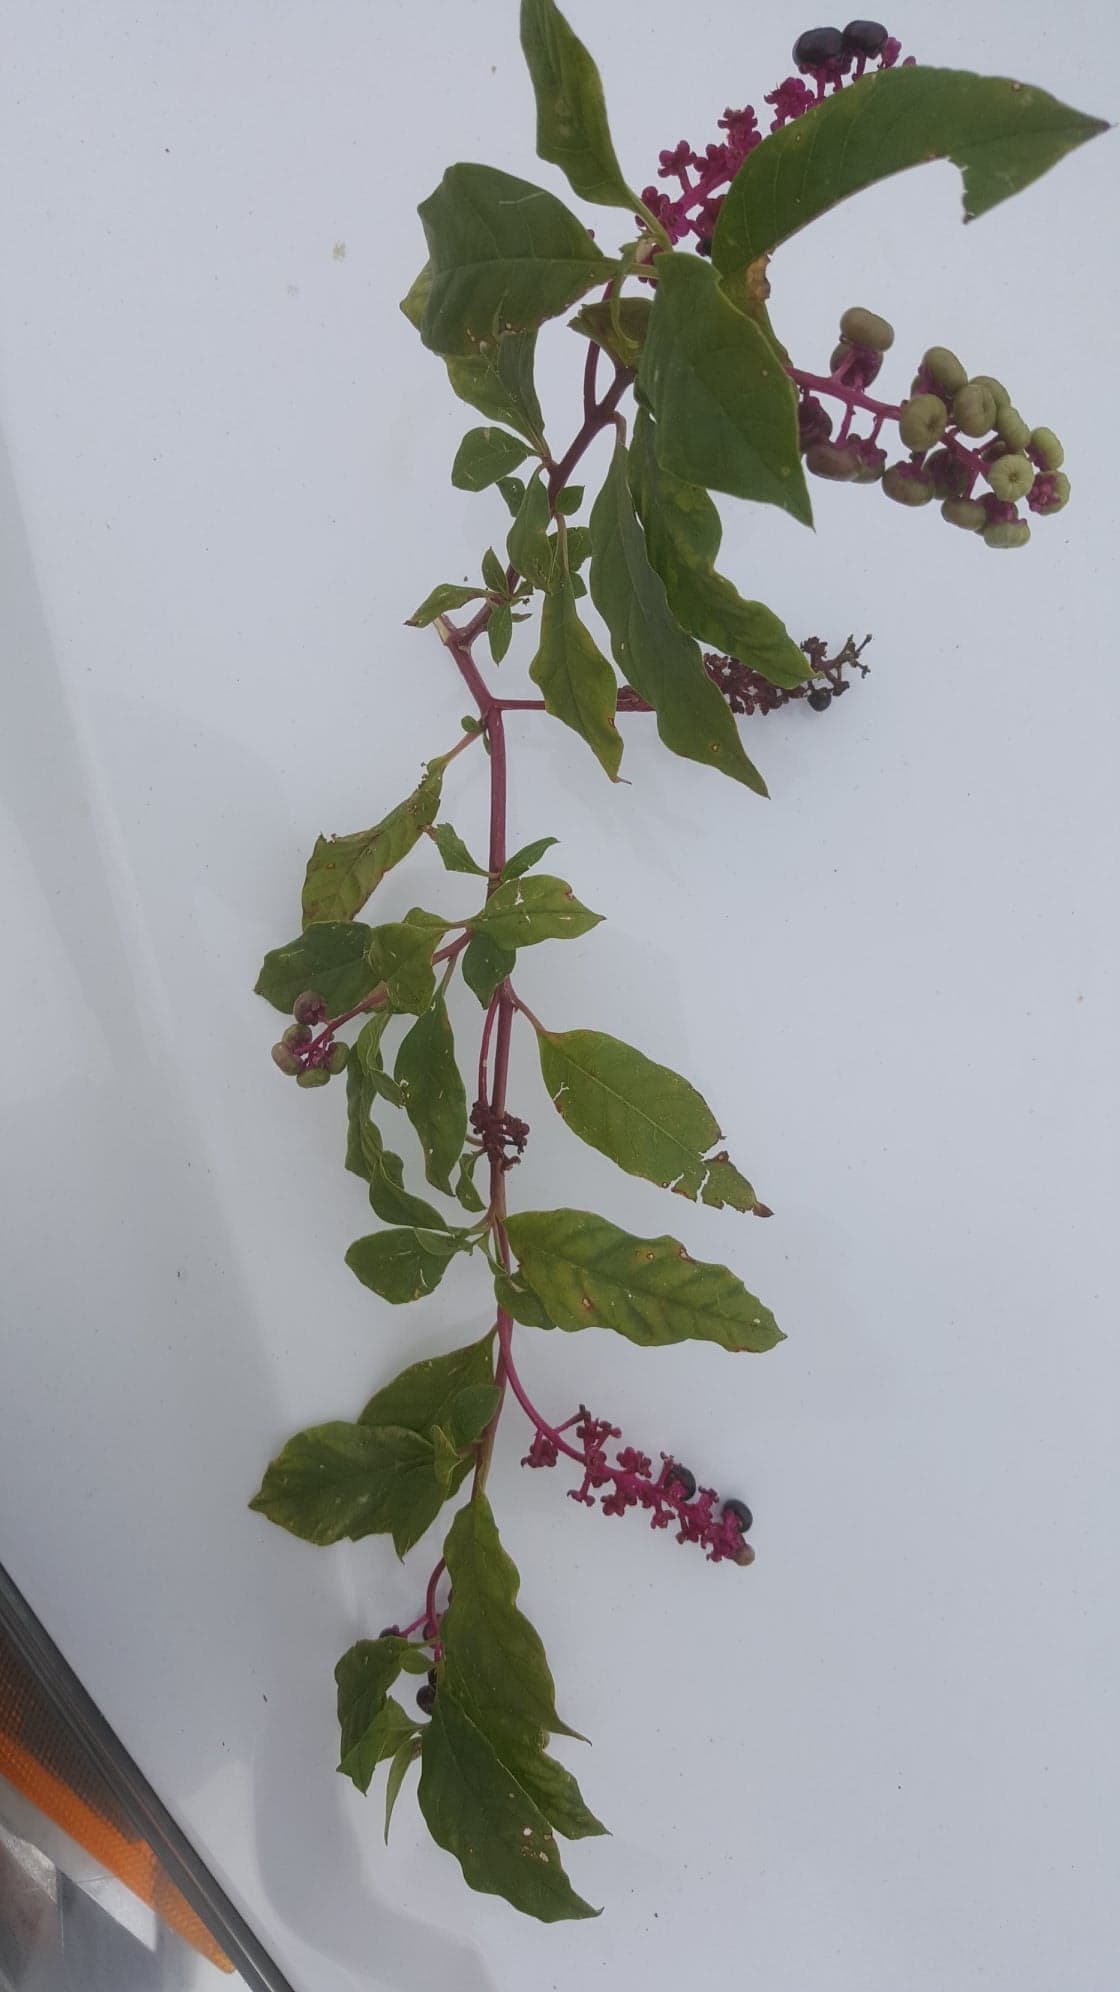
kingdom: Plantae
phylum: Tracheophyta
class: Magnoliopsida
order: Caryophyllales
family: Phytolaccaceae
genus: Phytolacca
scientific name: Phytolacca americana
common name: Pokeweed
